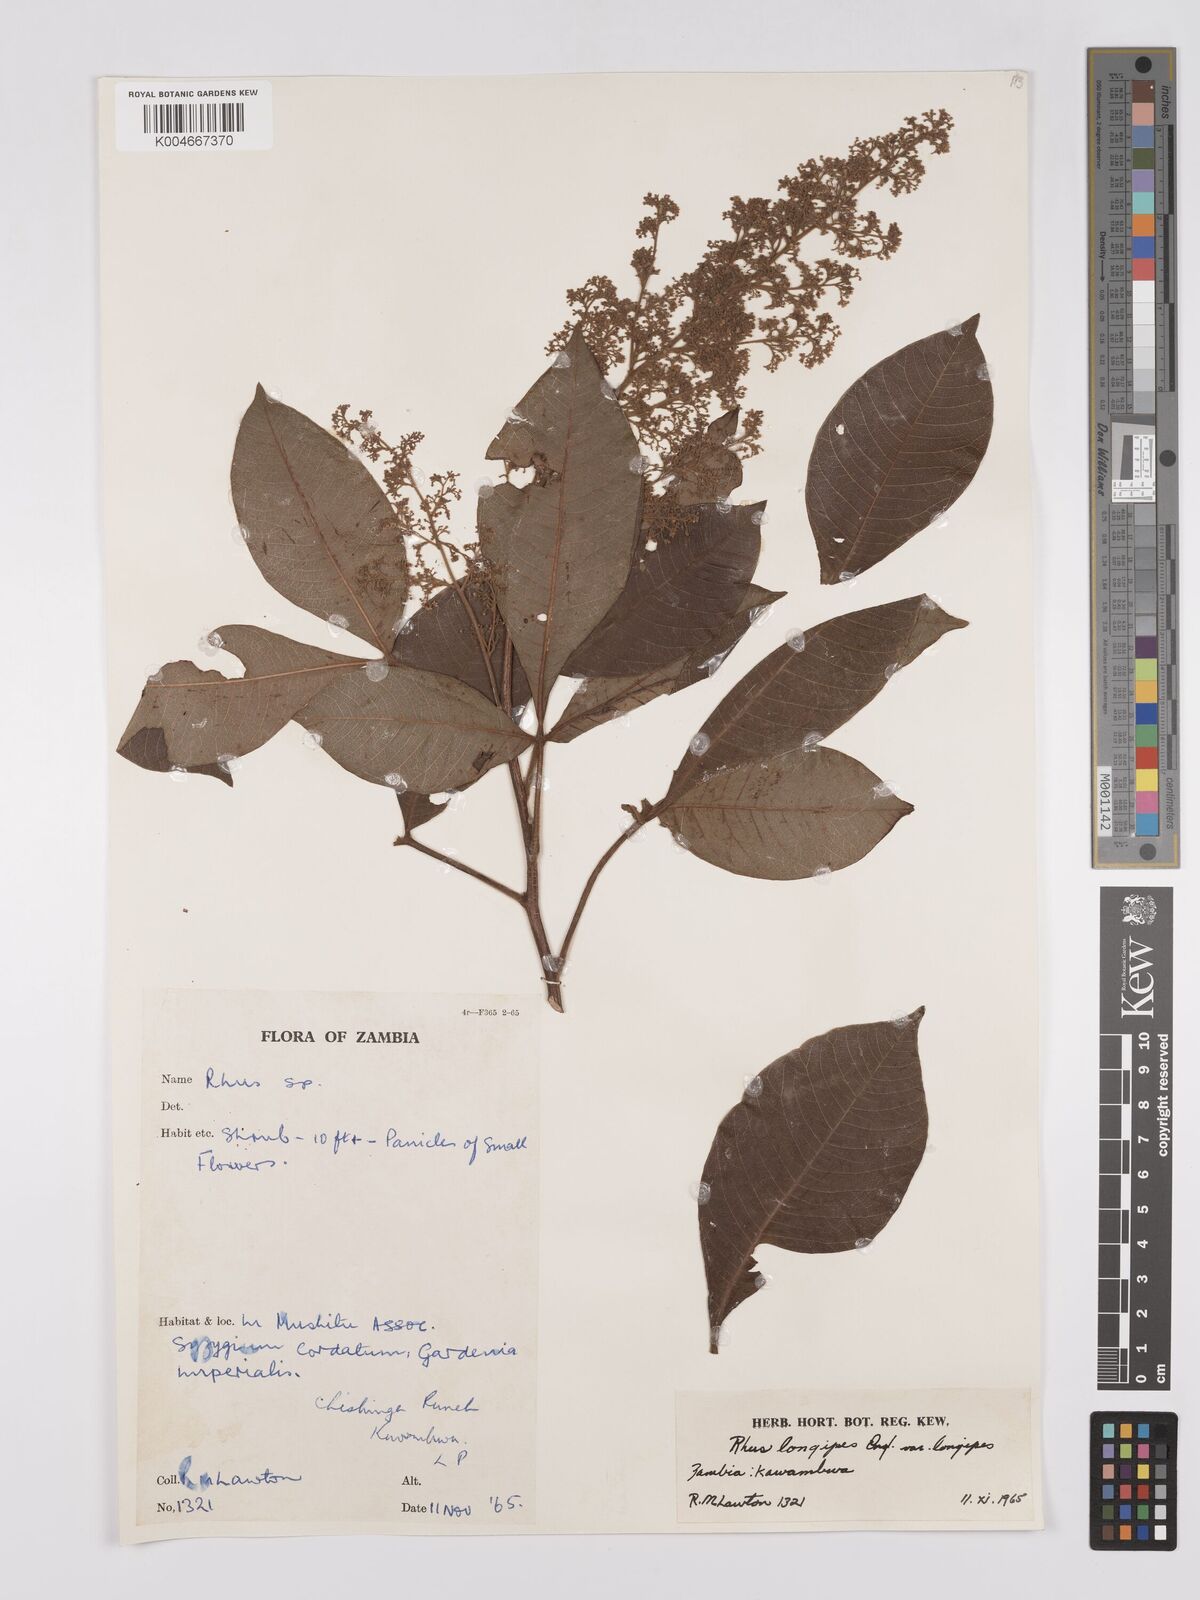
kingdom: Plantae
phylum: Tracheophyta
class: Magnoliopsida
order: Sapindales
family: Anacardiaceae
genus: Searsia
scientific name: Searsia longipes
